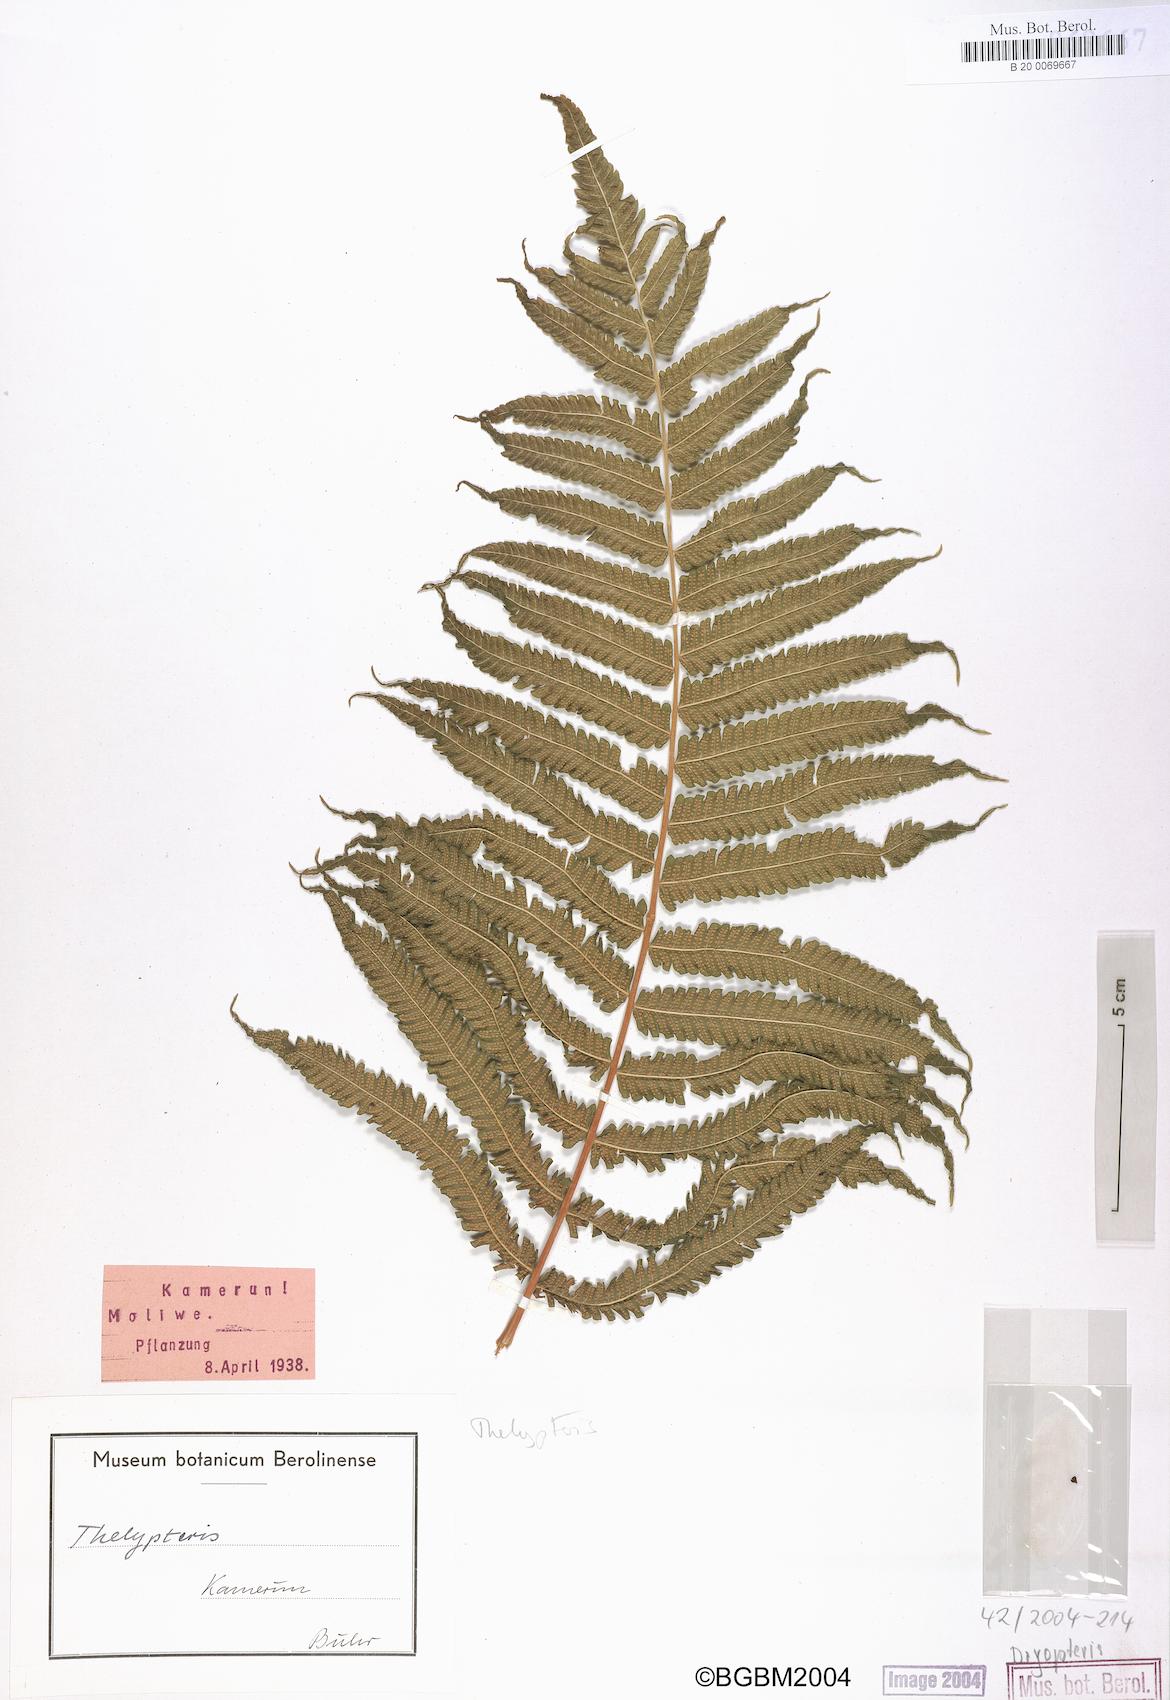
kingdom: Plantae
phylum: Tracheophyta
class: Polypodiopsida
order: Polypodiales
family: Thelypteridaceae
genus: Thelypteris
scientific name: Thelypteris
